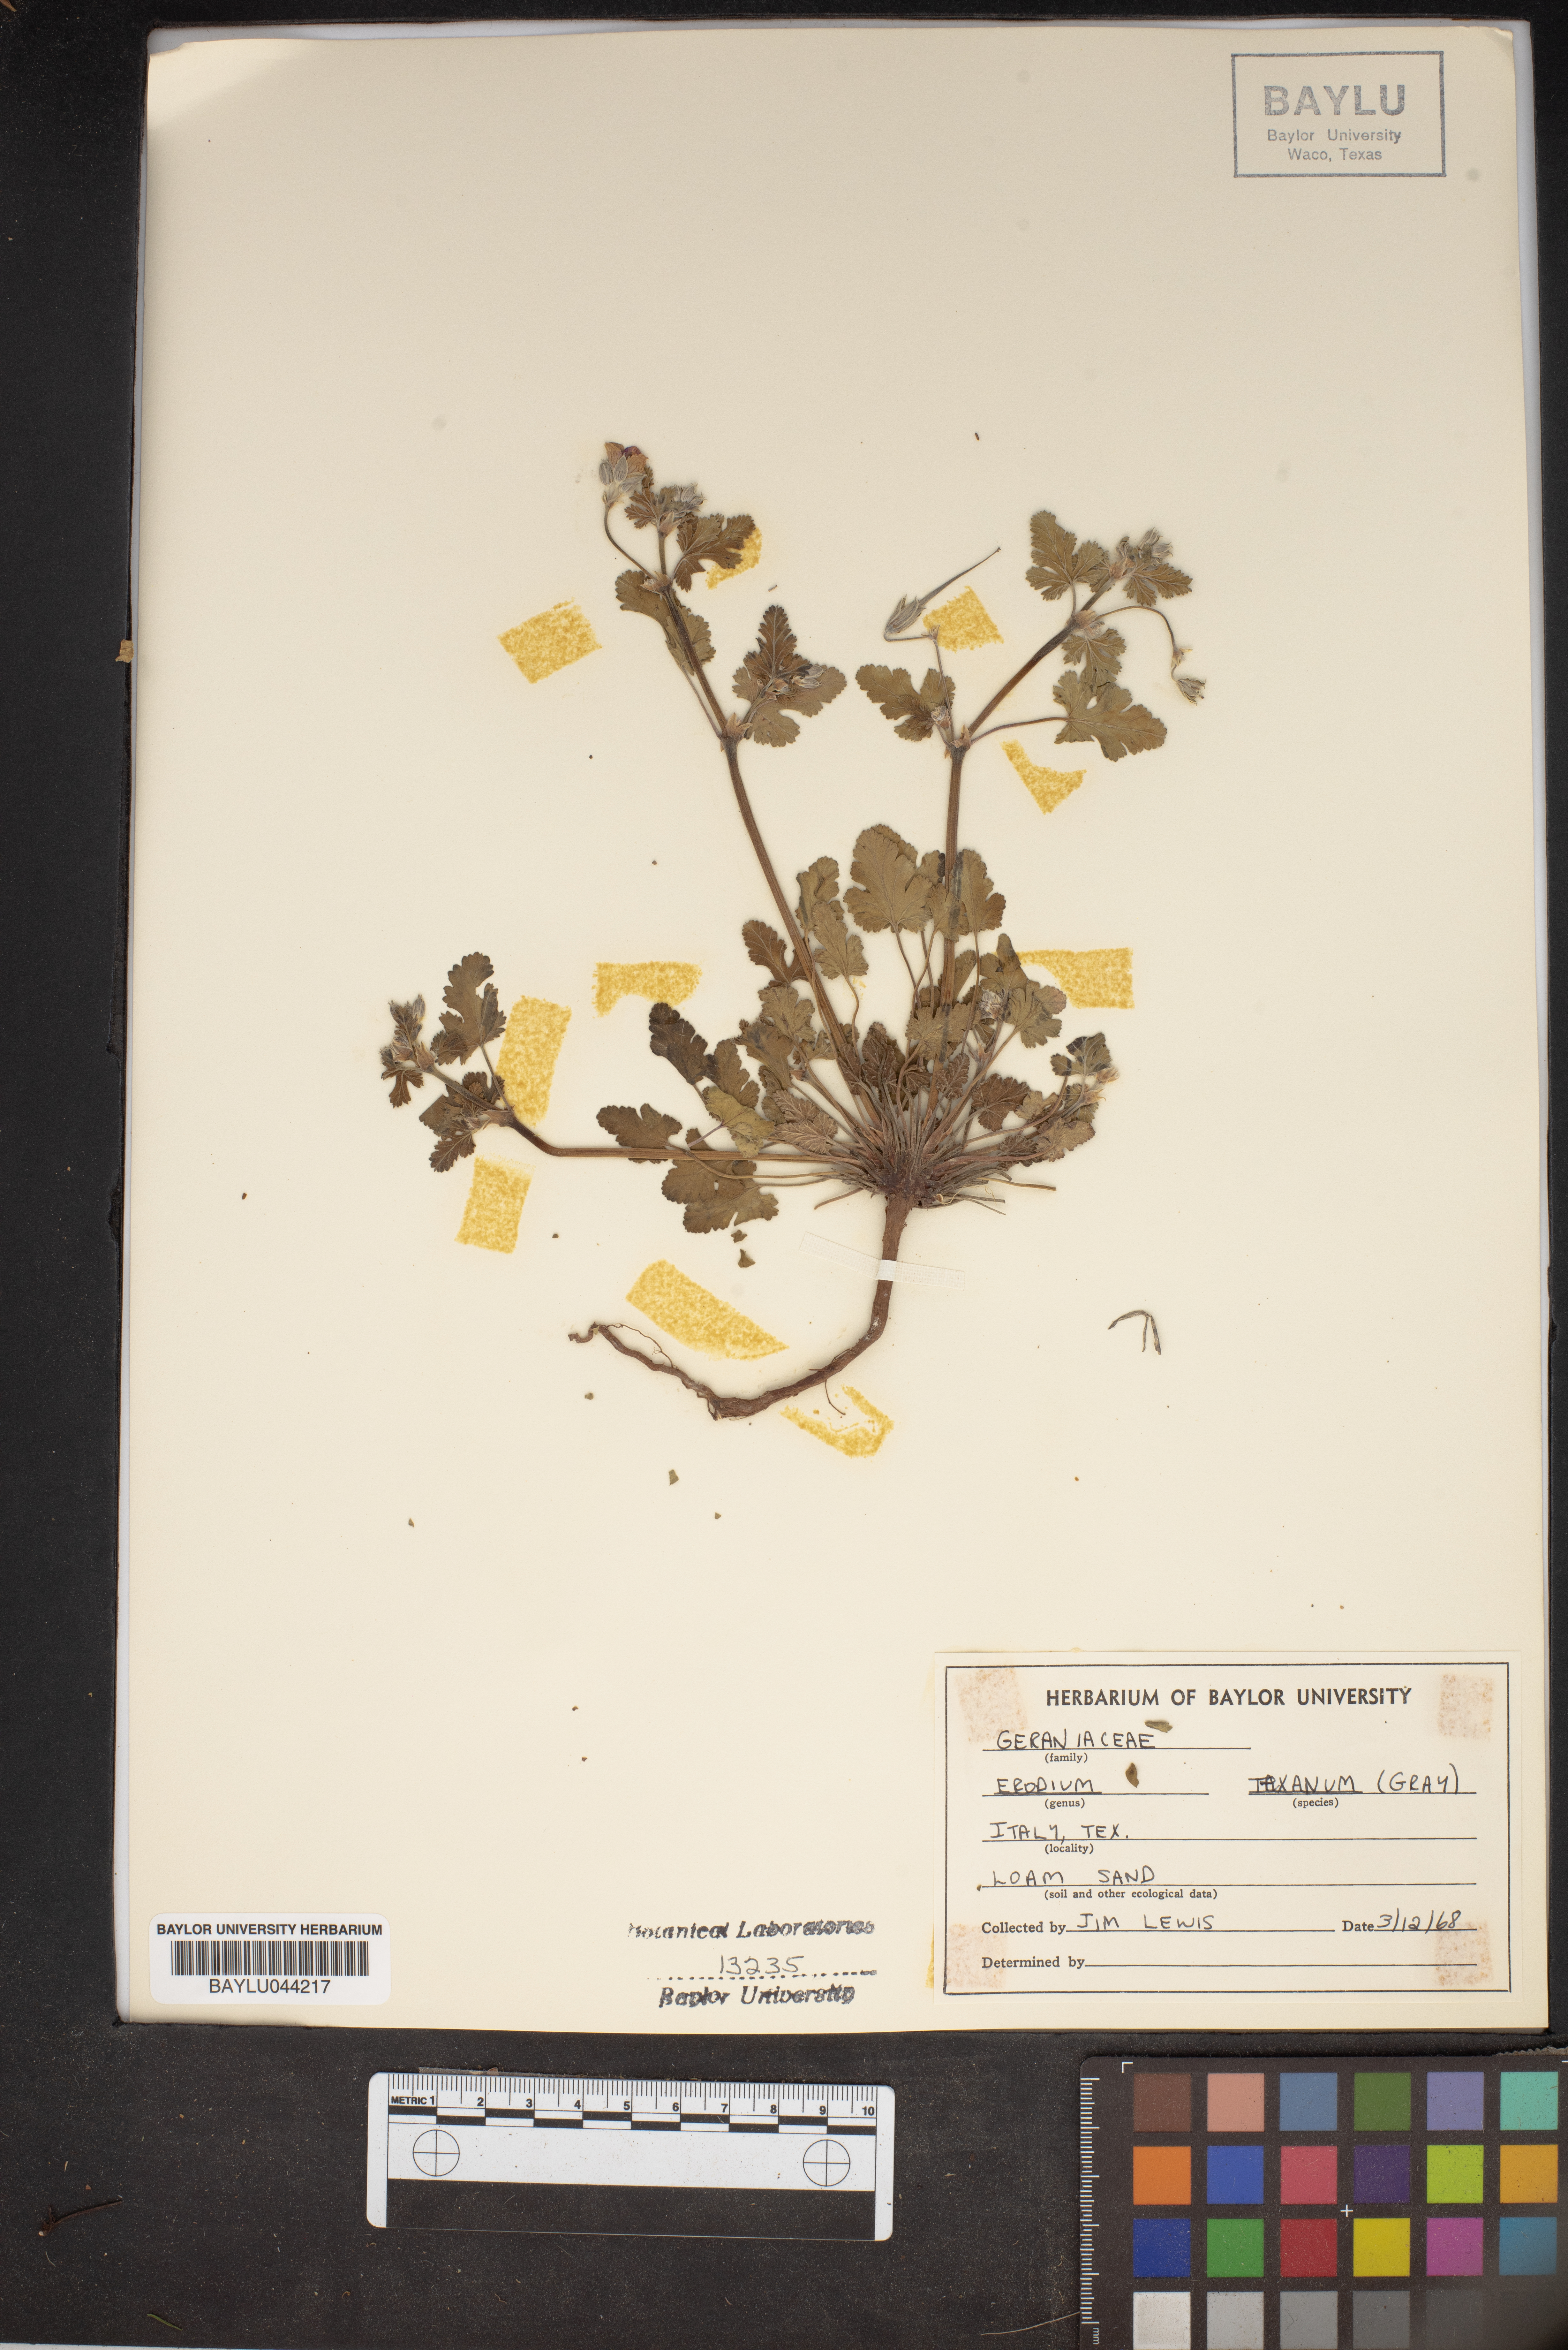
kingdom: Plantae
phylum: Tracheophyta
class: Magnoliopsida
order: Geraniales
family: Geraniaceae
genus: Erodium
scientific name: Erodium texanum
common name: Texas stork's-bill
